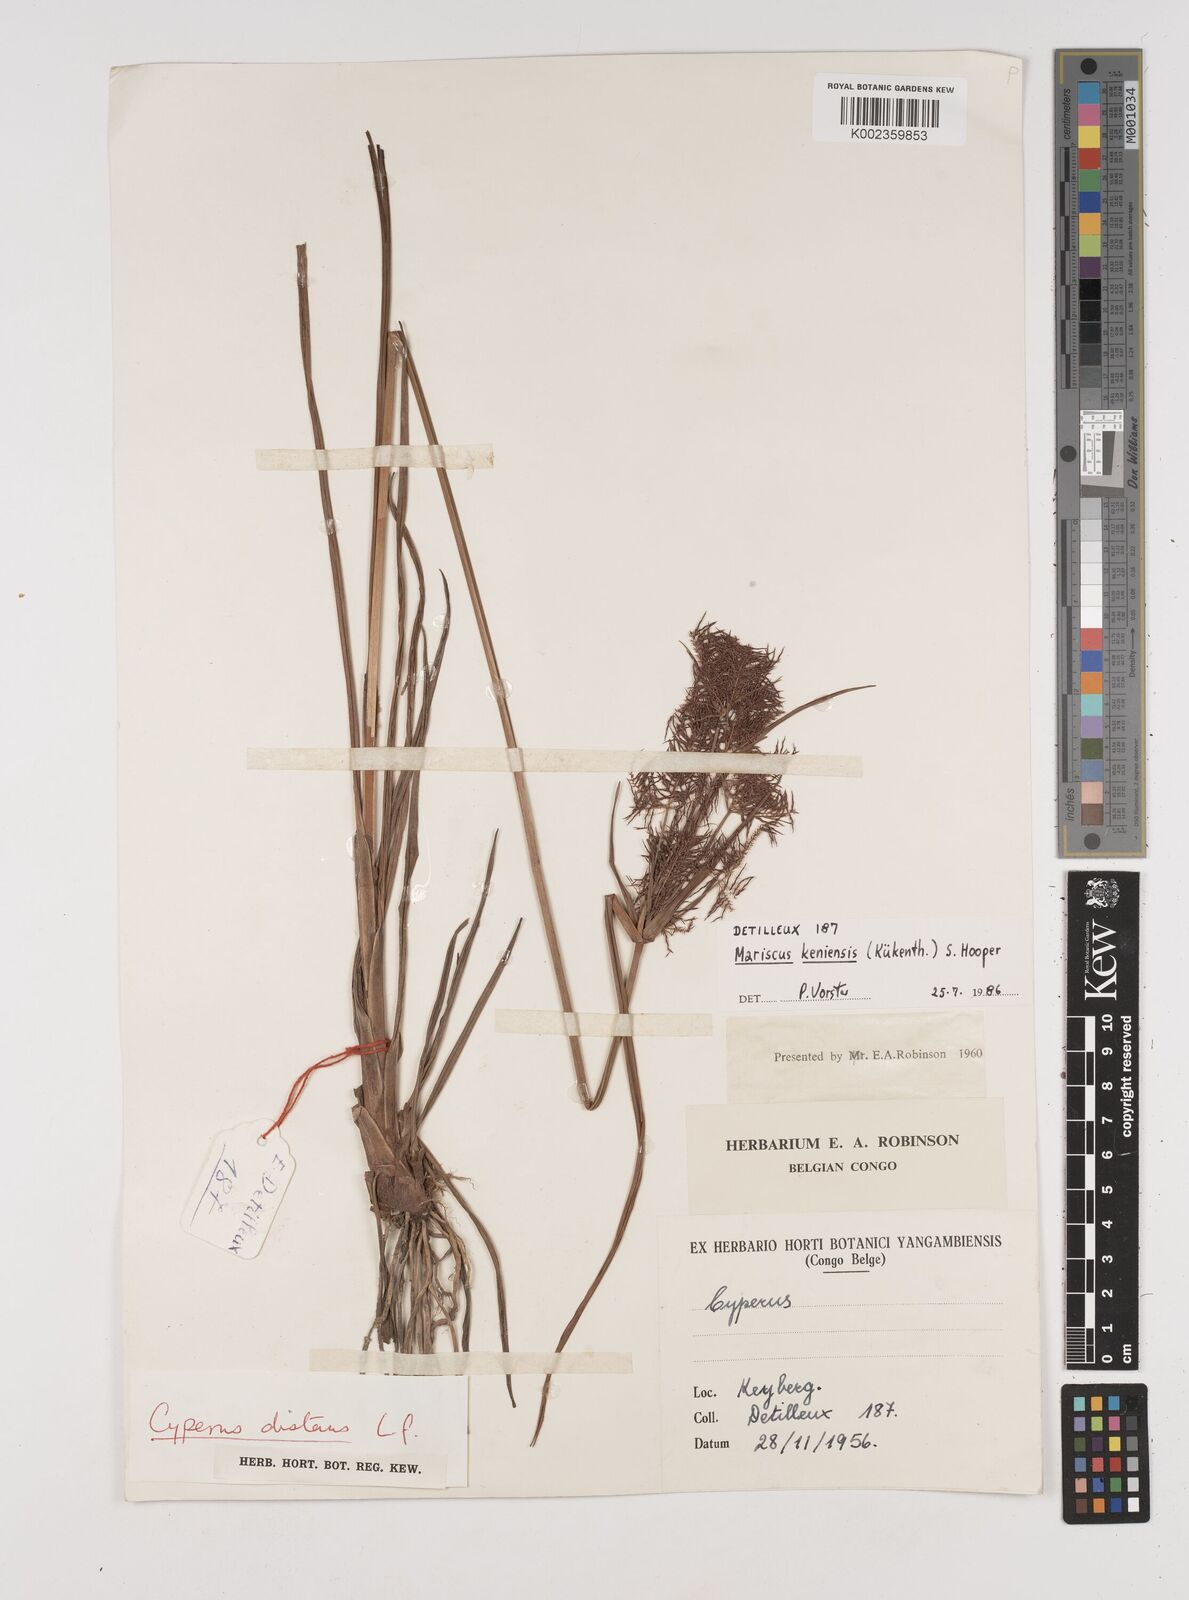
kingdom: Plantae
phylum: Tracheophyta
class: Liliopsida
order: Poales
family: Cyperaceae
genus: Cyperus
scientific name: Cyperus distans
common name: Slender cyperus
